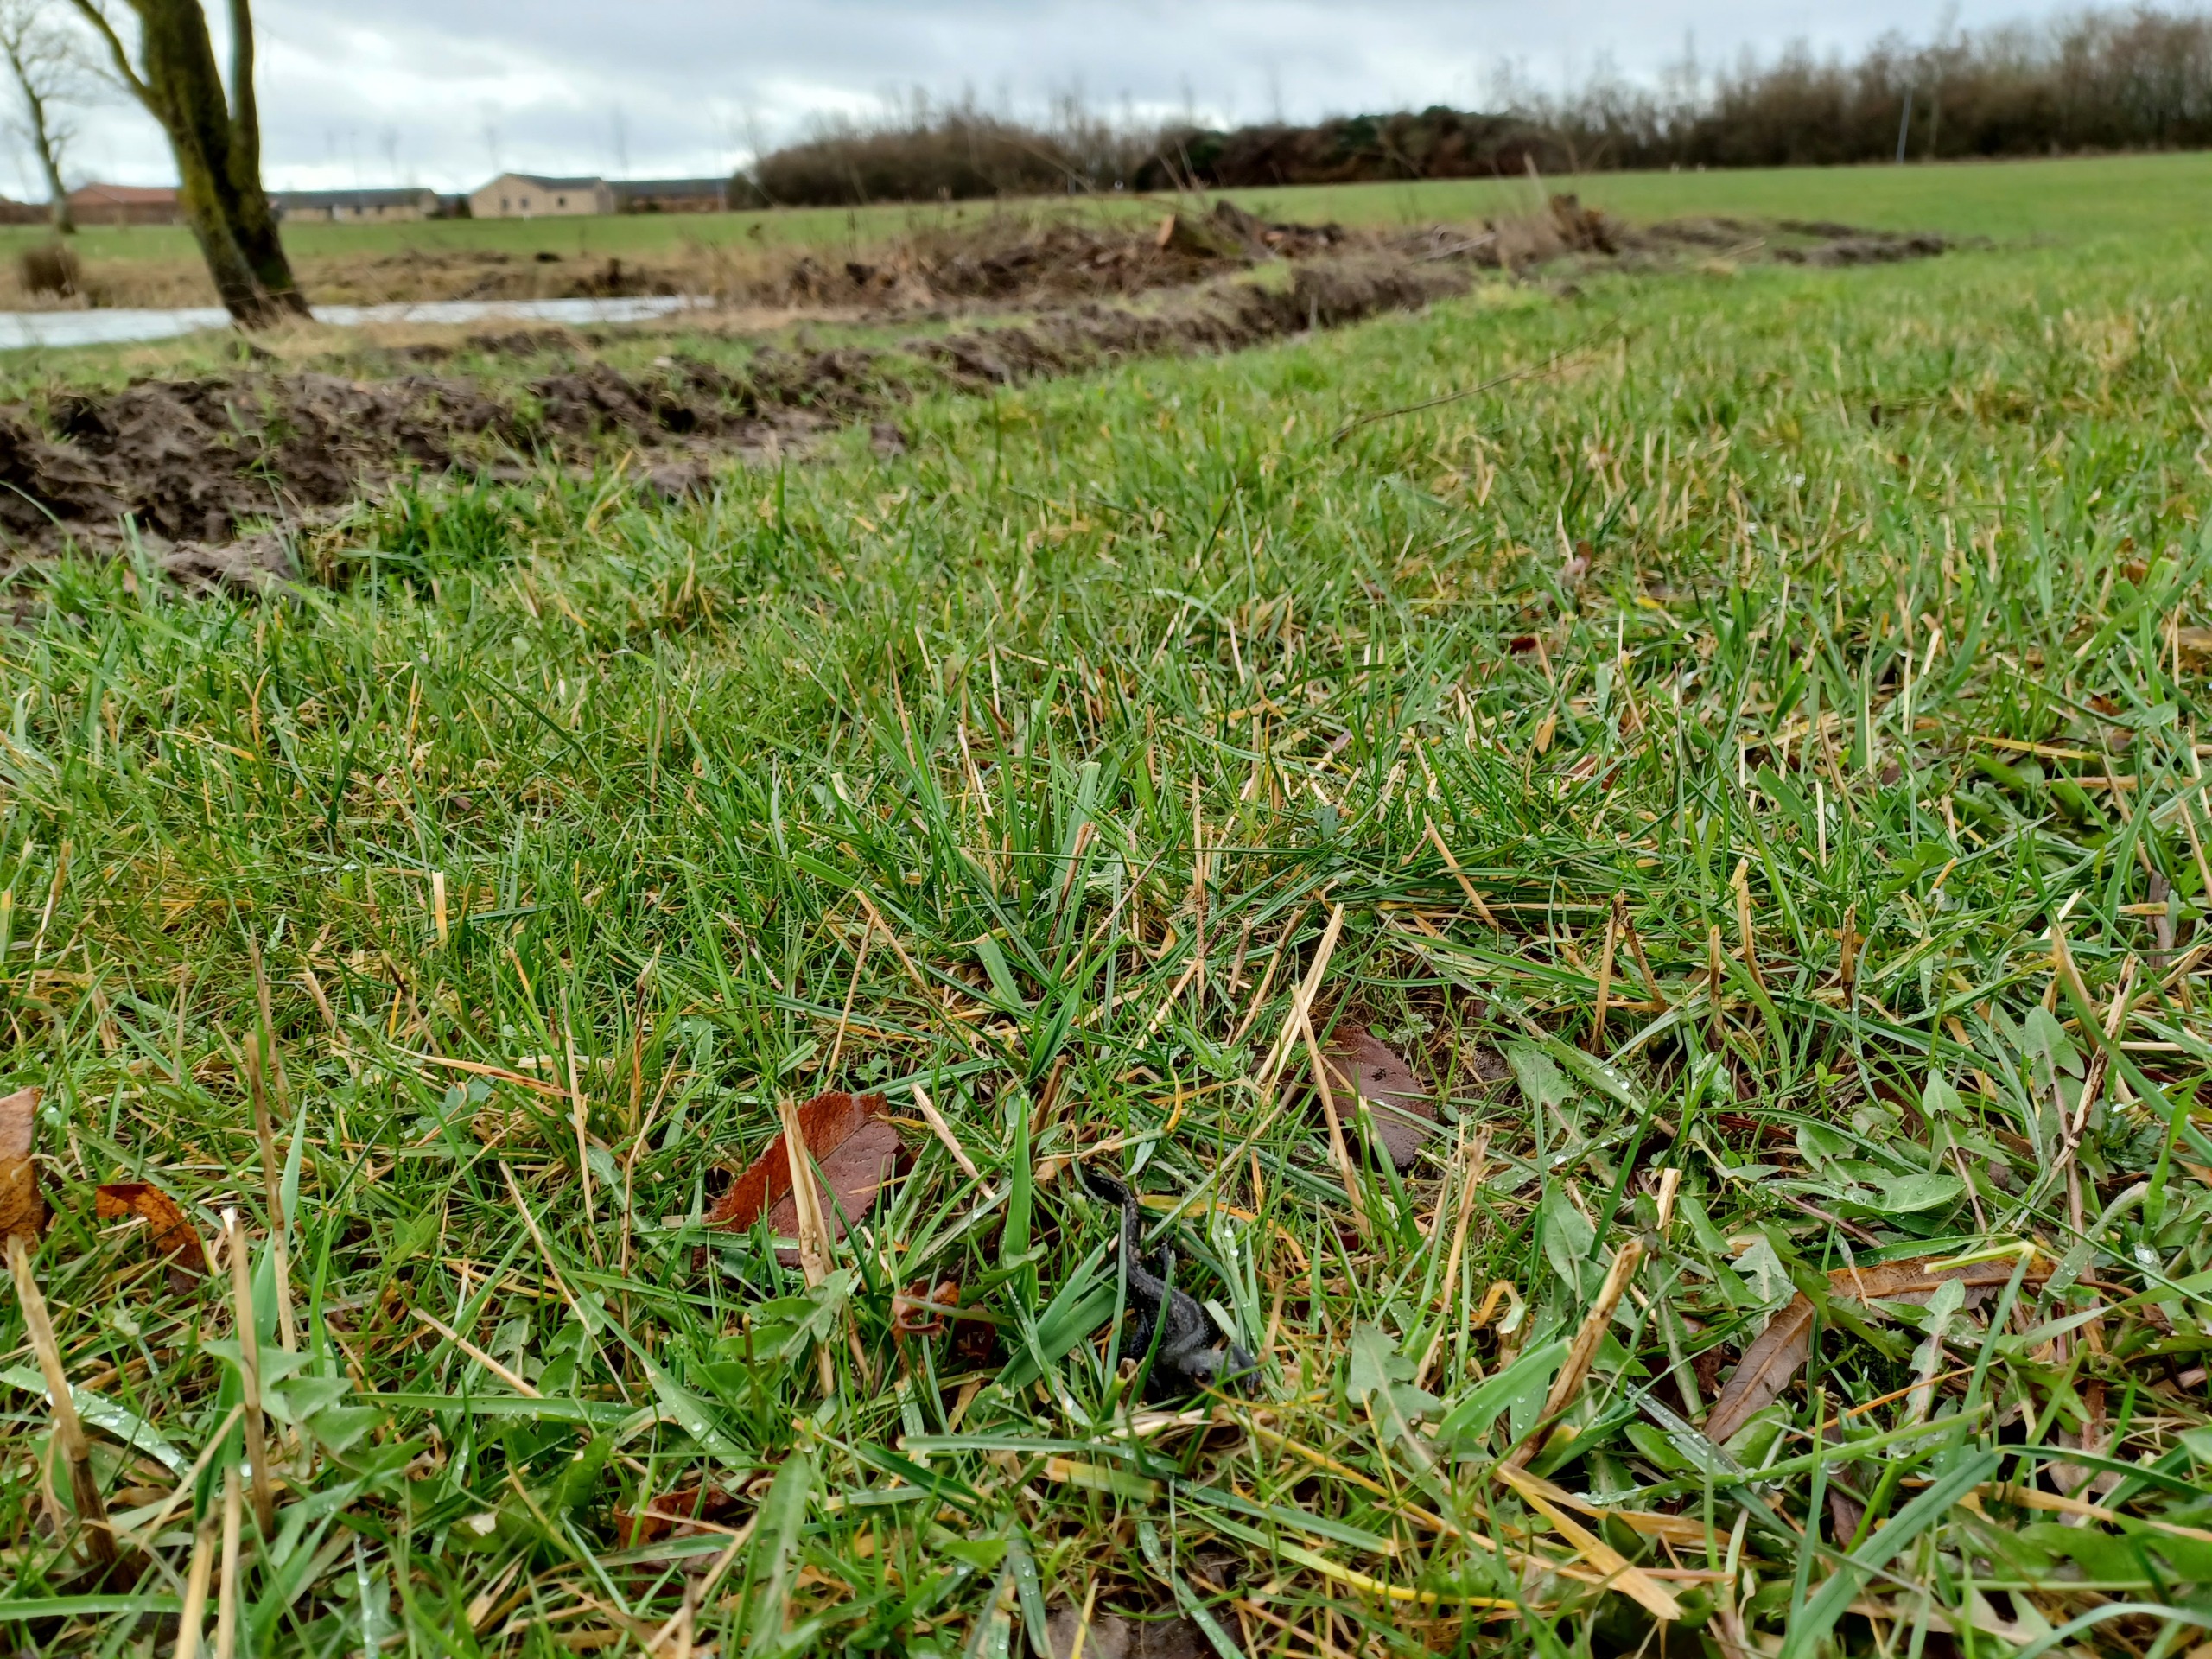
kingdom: Animalia
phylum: Chordata
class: Amphibia
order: Caudata
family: Salamandridae
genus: Triturus
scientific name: Triturus cristatus
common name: Stor vandsalamander
